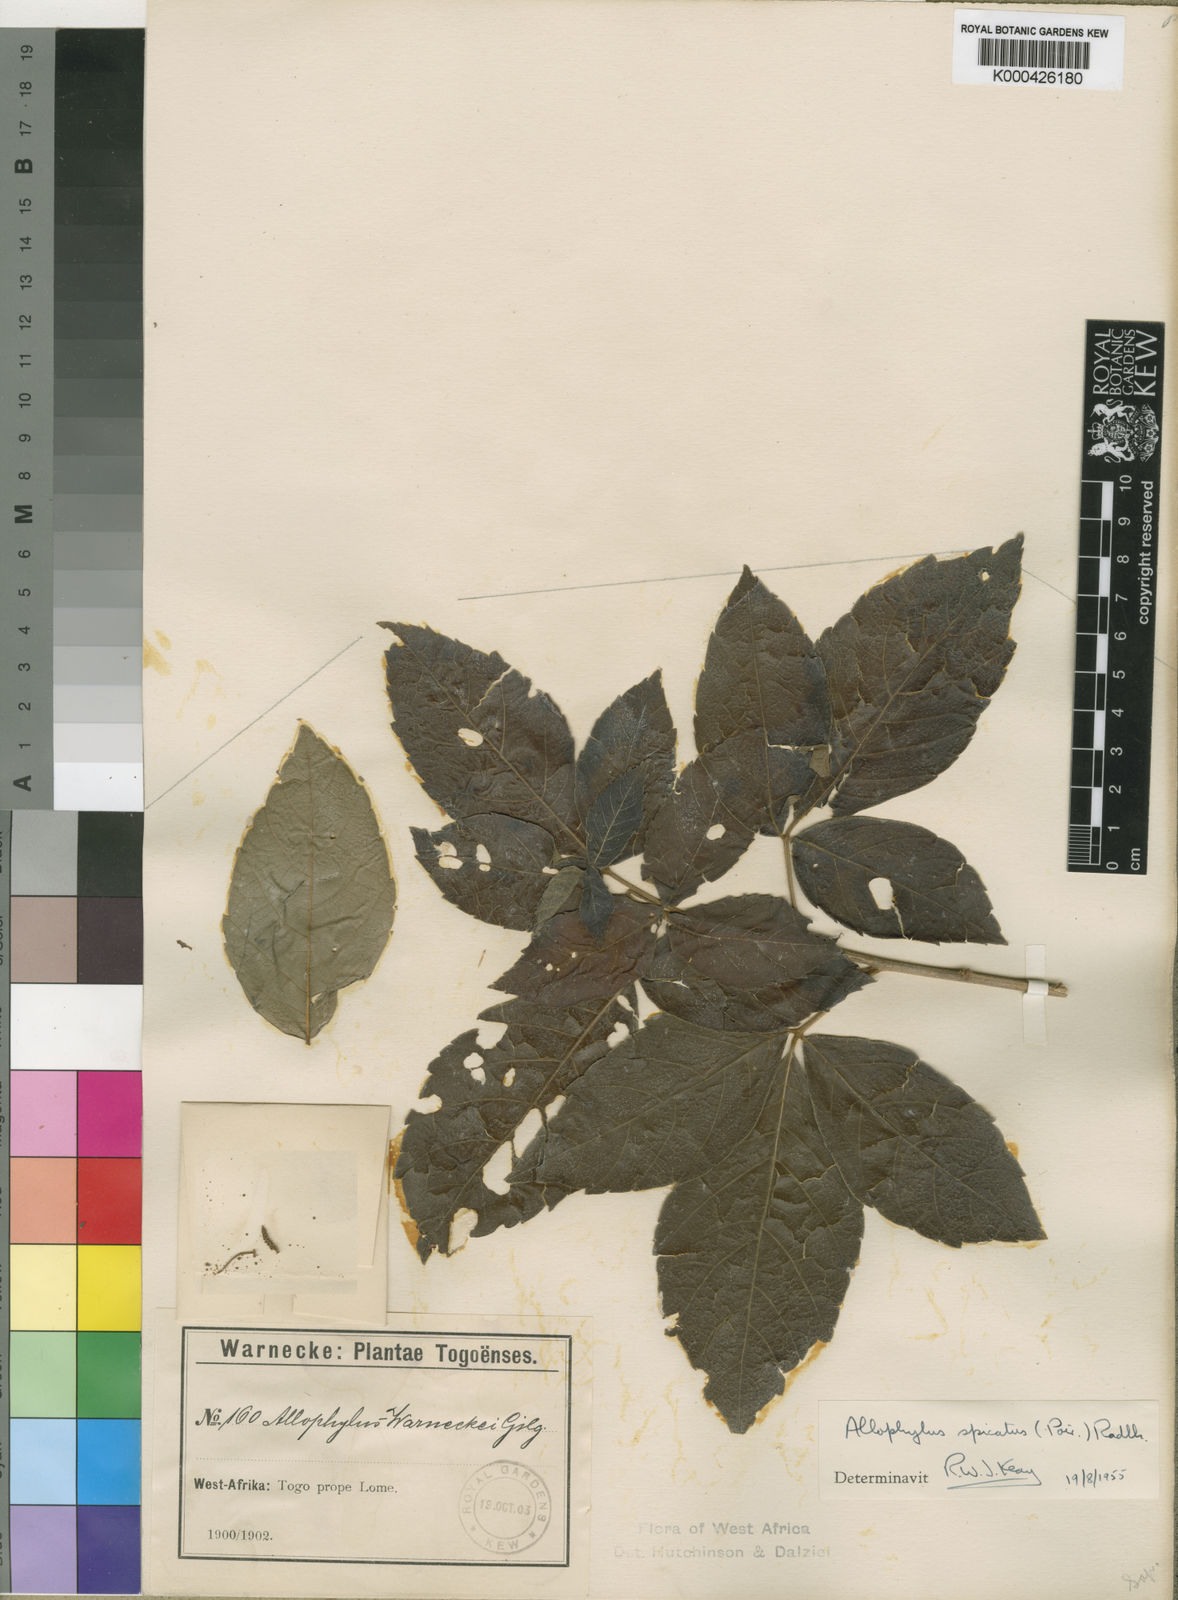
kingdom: Plantae
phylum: Tracheophyta
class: Magnoliopsida
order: Sapindales
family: Sapindaceae
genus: Allophylus
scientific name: Allophylus spicatus
